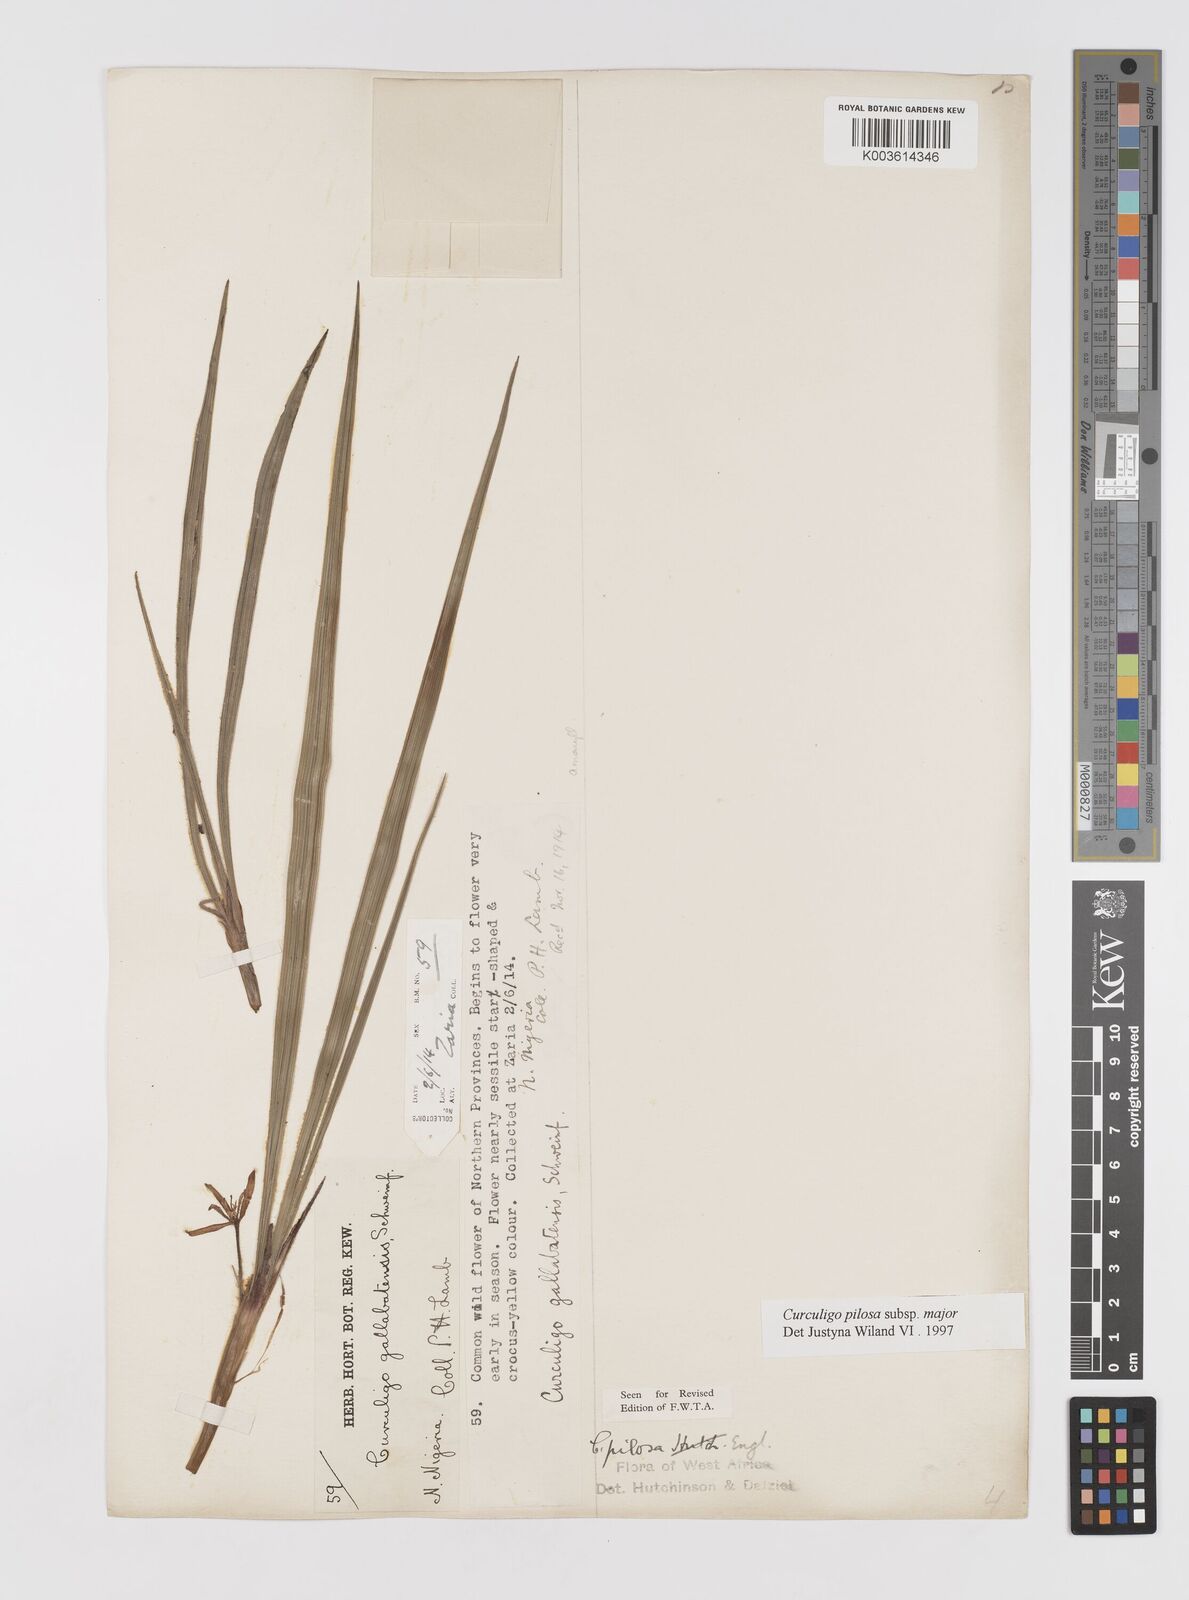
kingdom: Plantae
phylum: Tracheophyta
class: Liliopsida
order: Asparagales
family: Hypoxidaceae
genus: Curculigo
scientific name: Curculigo pilosa
